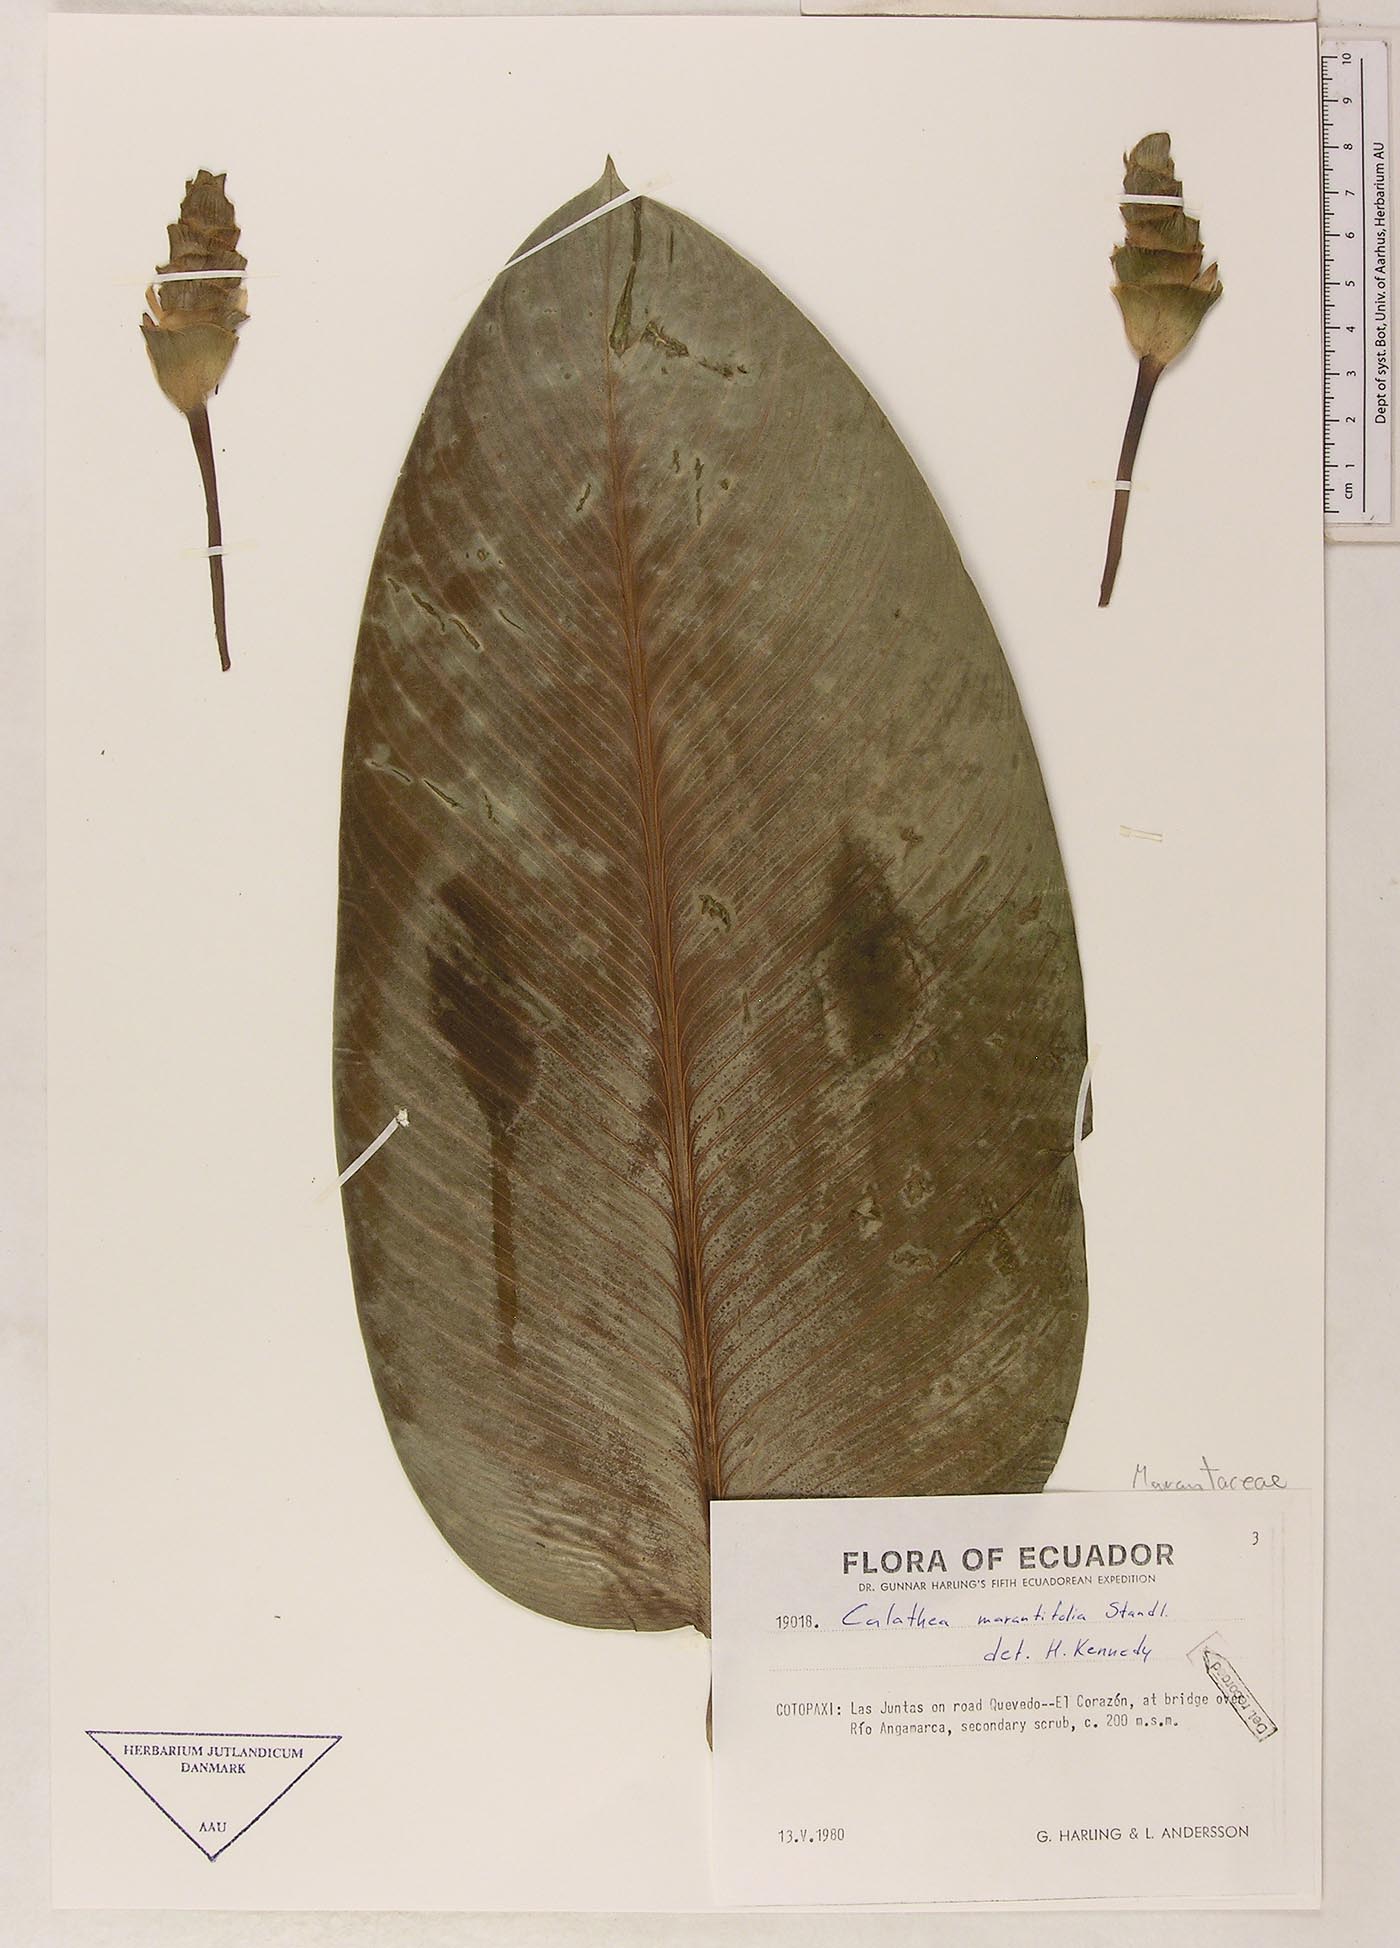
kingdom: Plantae
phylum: Tracheophyta
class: Liliopsida
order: Zingiberales
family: Marantaceae
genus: Goeppertia
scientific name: Goeppertia marantifolia
